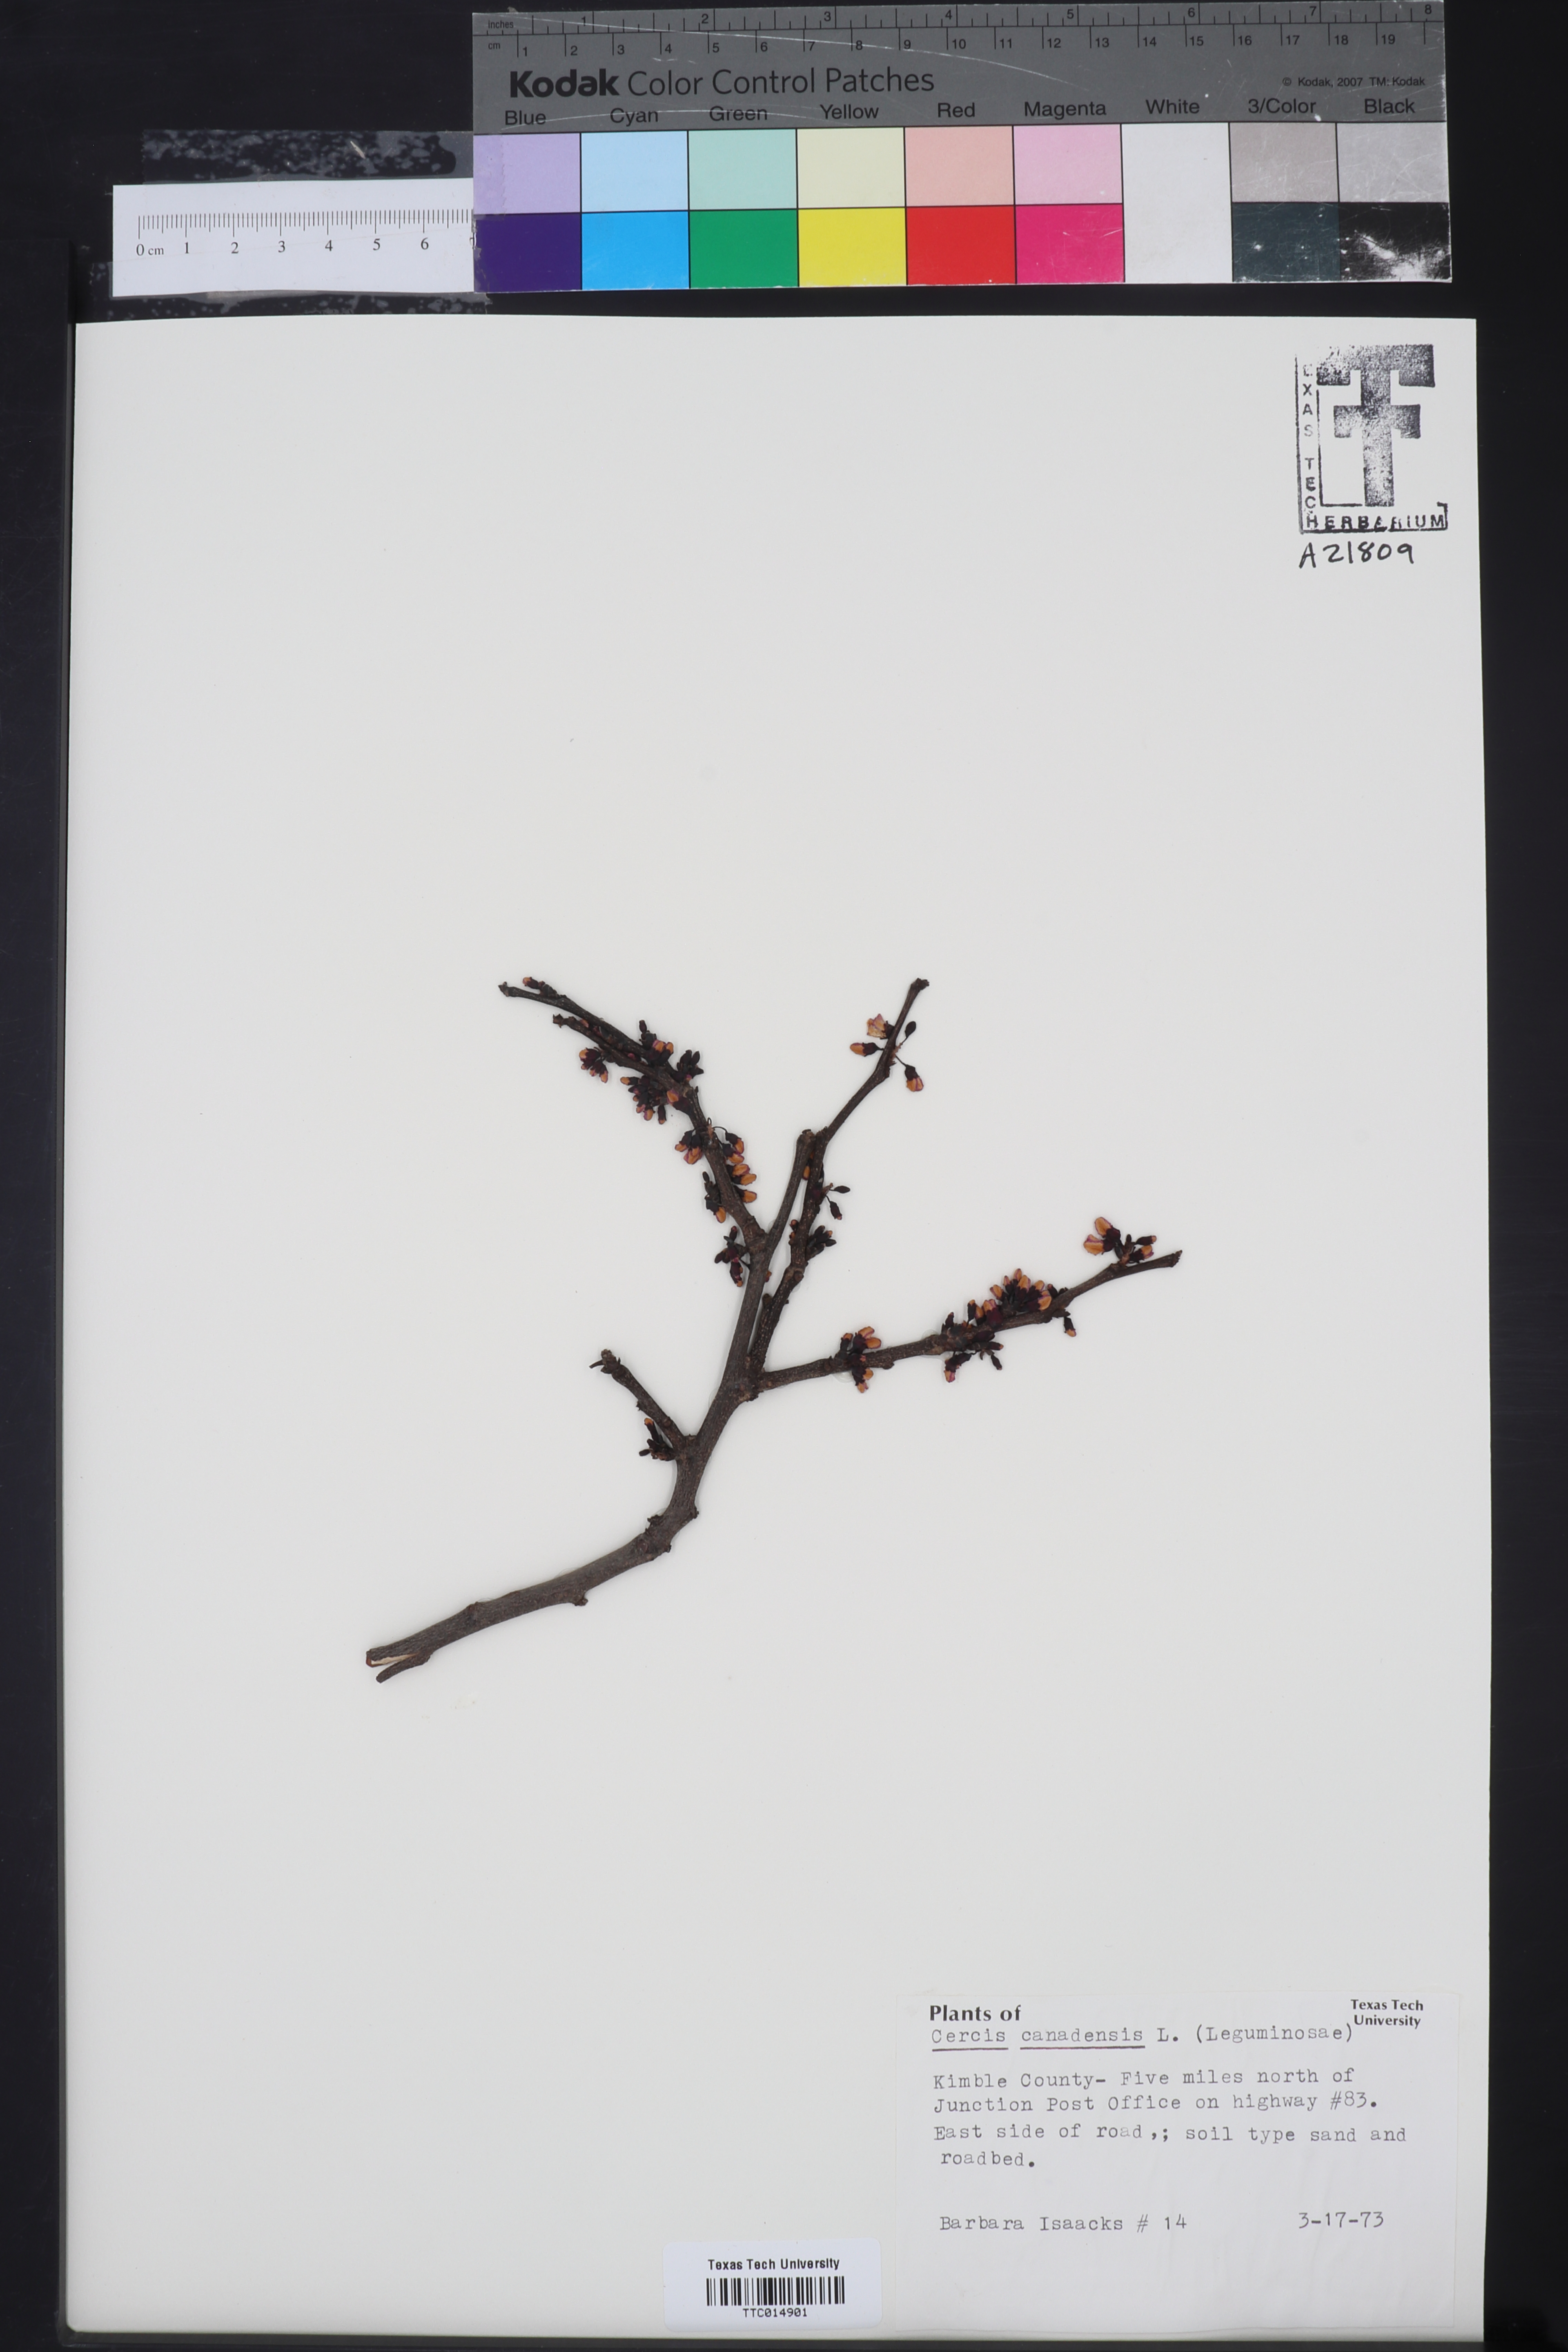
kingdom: Plantae
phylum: Tracheophyta
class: Magnoliopsida
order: Fabales
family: Fabaceae
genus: Cercis
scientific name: Cercis canadensis
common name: Eastern redbud
